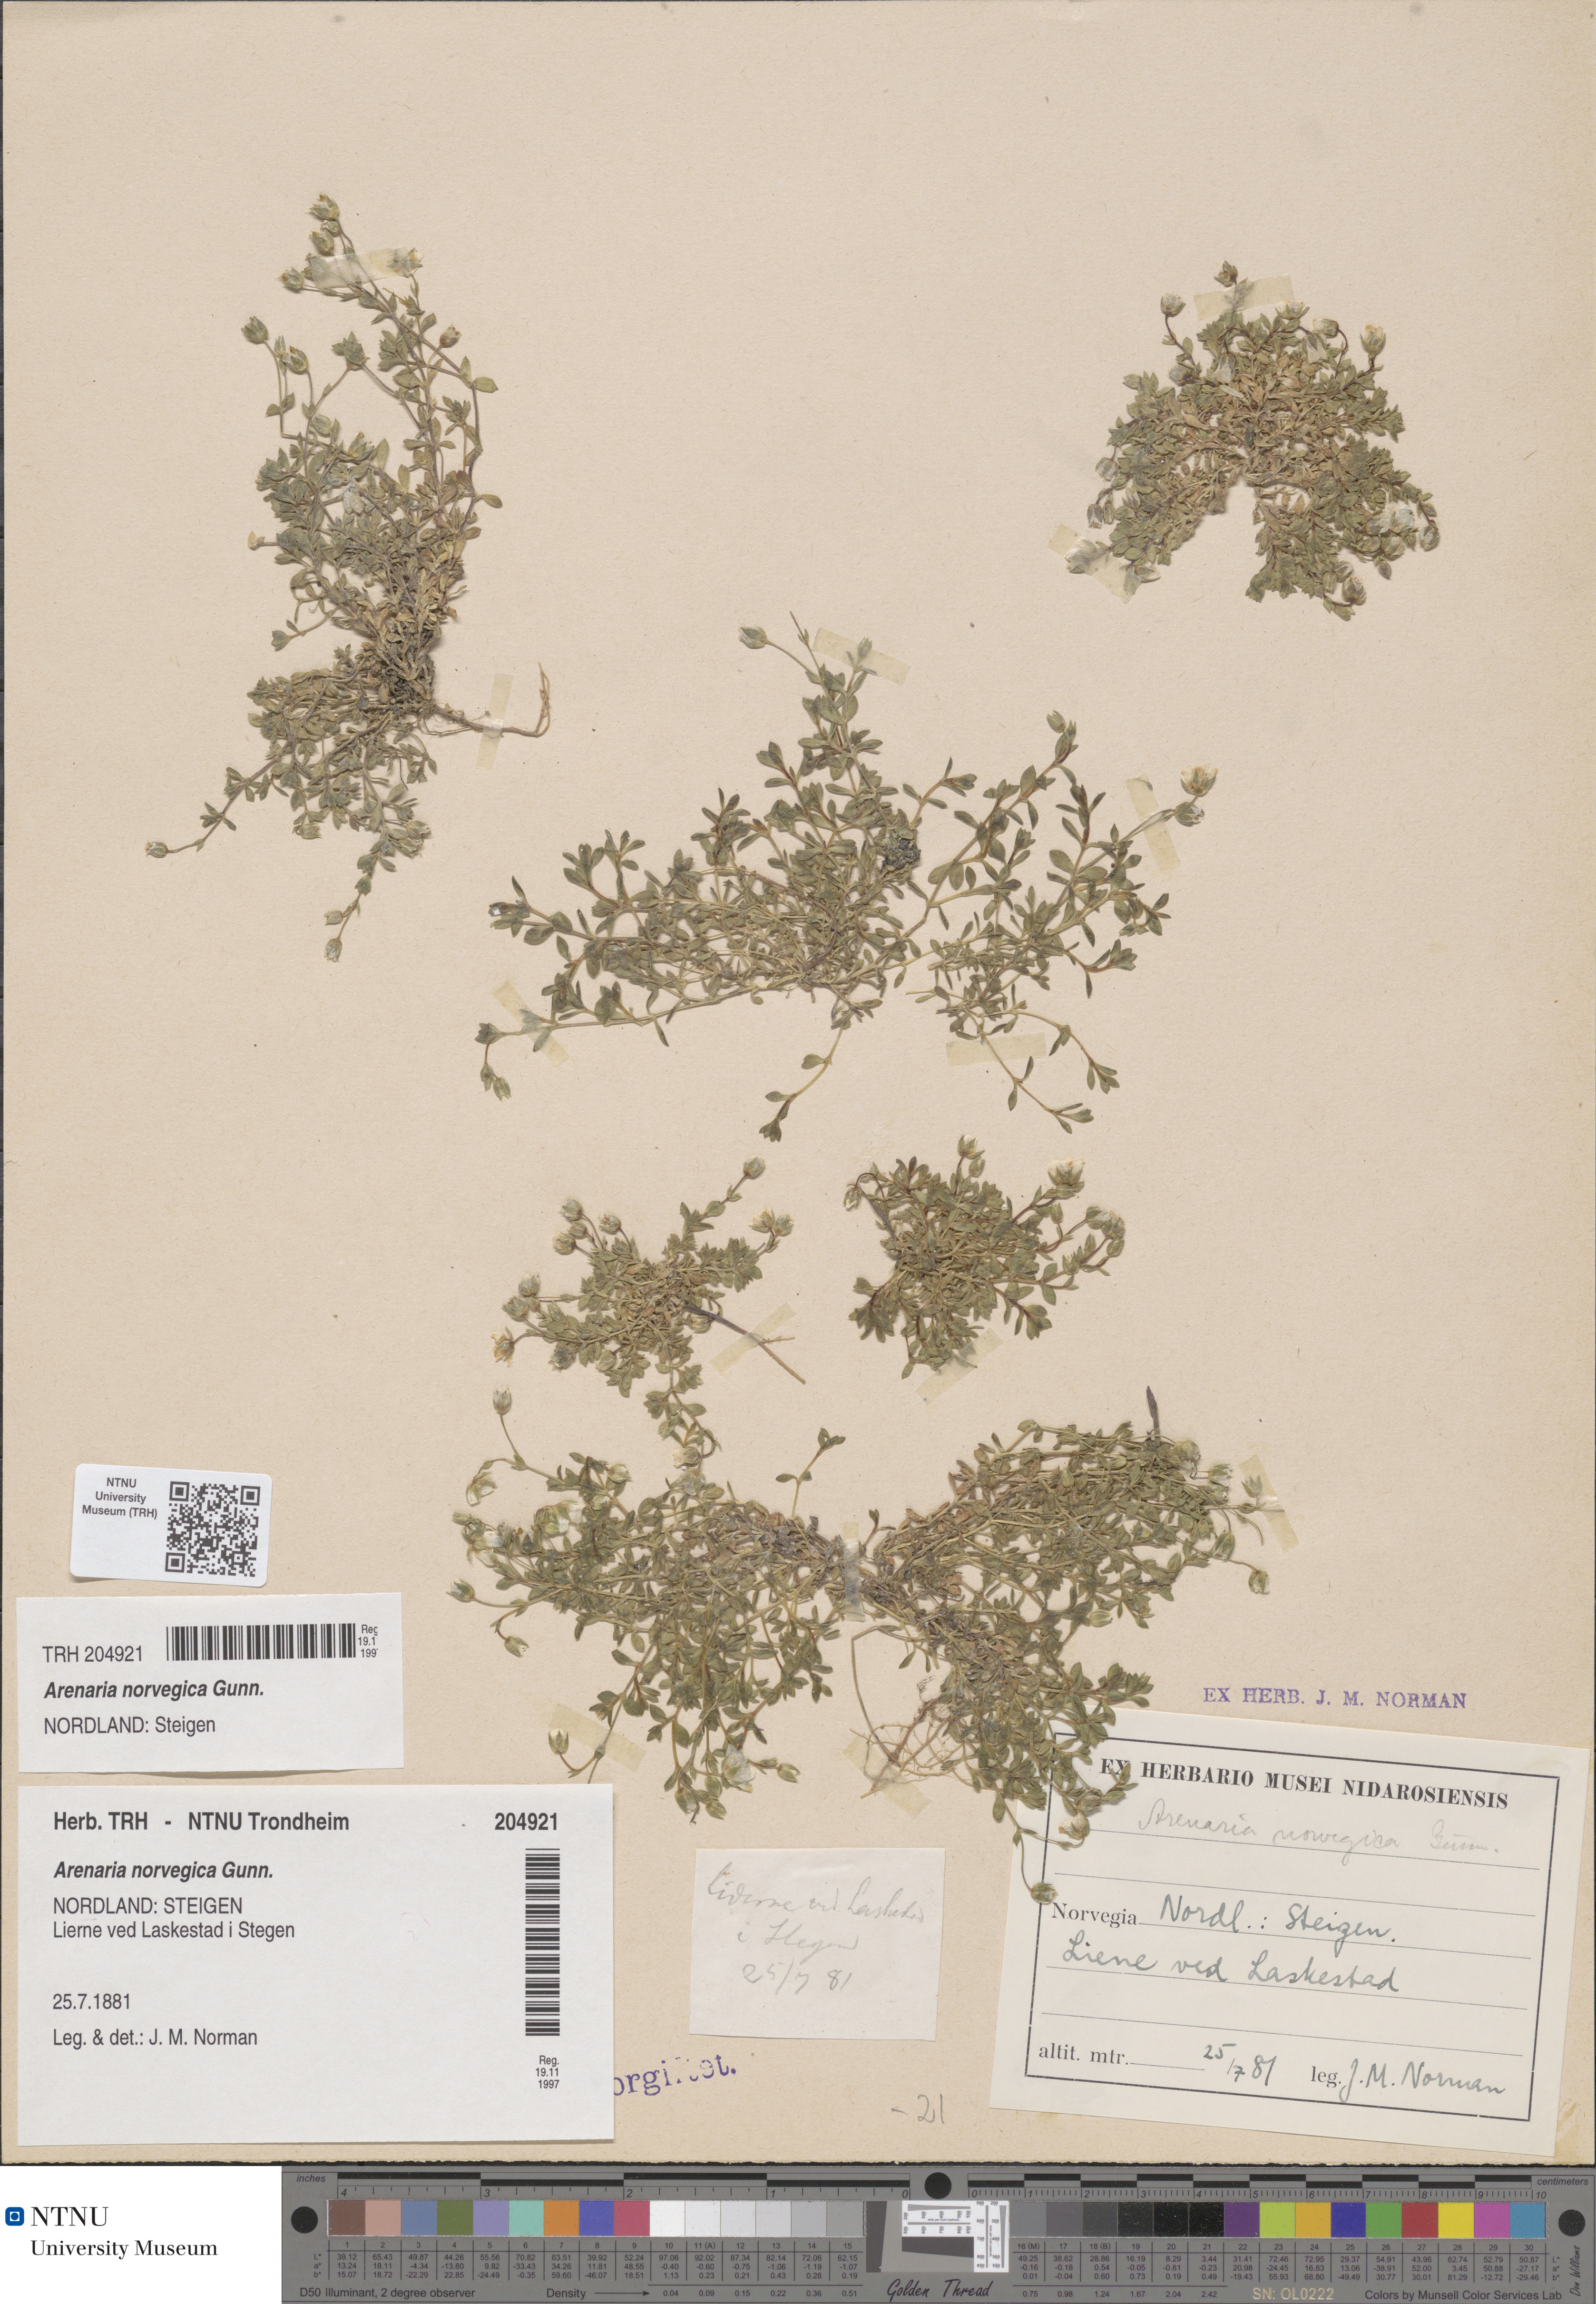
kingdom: Plantae
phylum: Tracheophyta
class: Magnoliopsida
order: Caryophyllales
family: Caryophyllaceae
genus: Arenaria
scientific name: Arenaria norvegica
